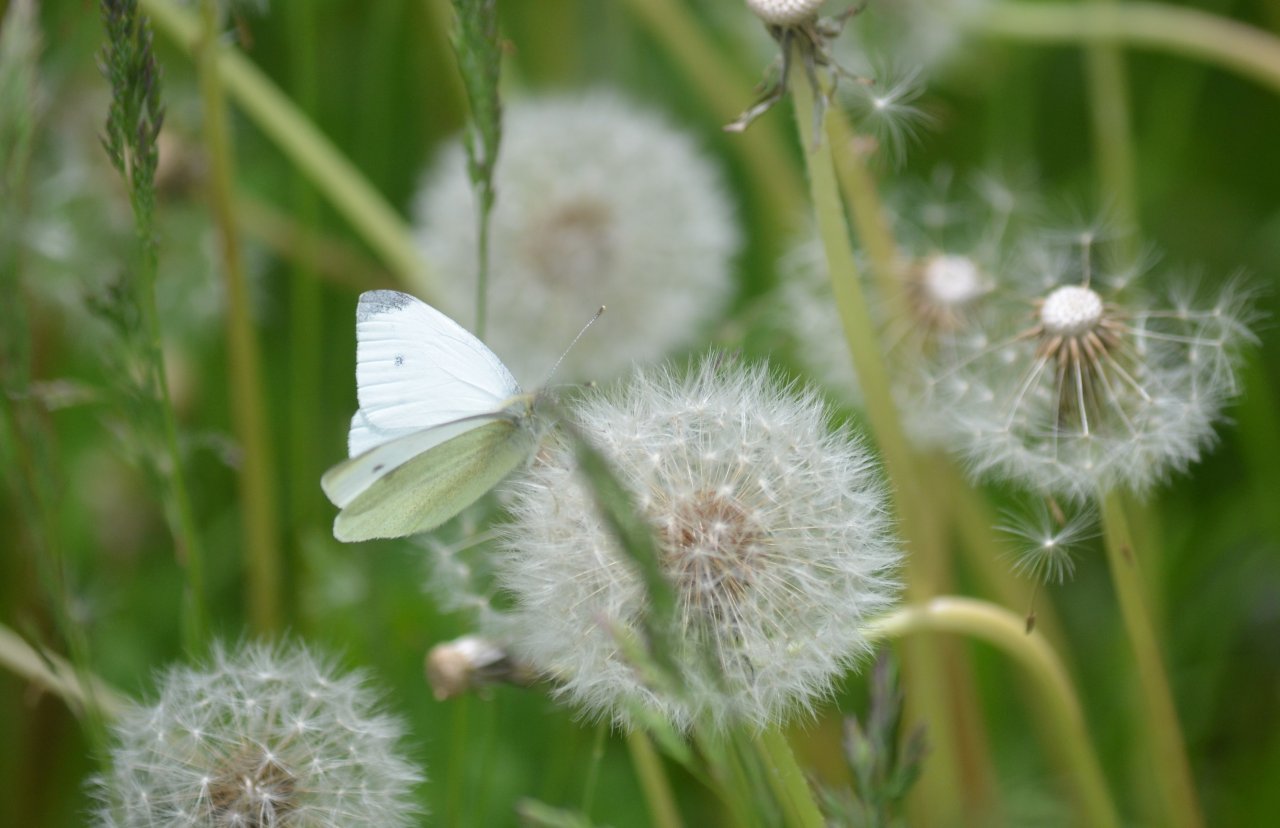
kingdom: Animalia
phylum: Arthropoda
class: Insecta
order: Lepidoptera
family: Pieridae
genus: Pieris
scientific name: Pieris rapae
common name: Cabbage White
